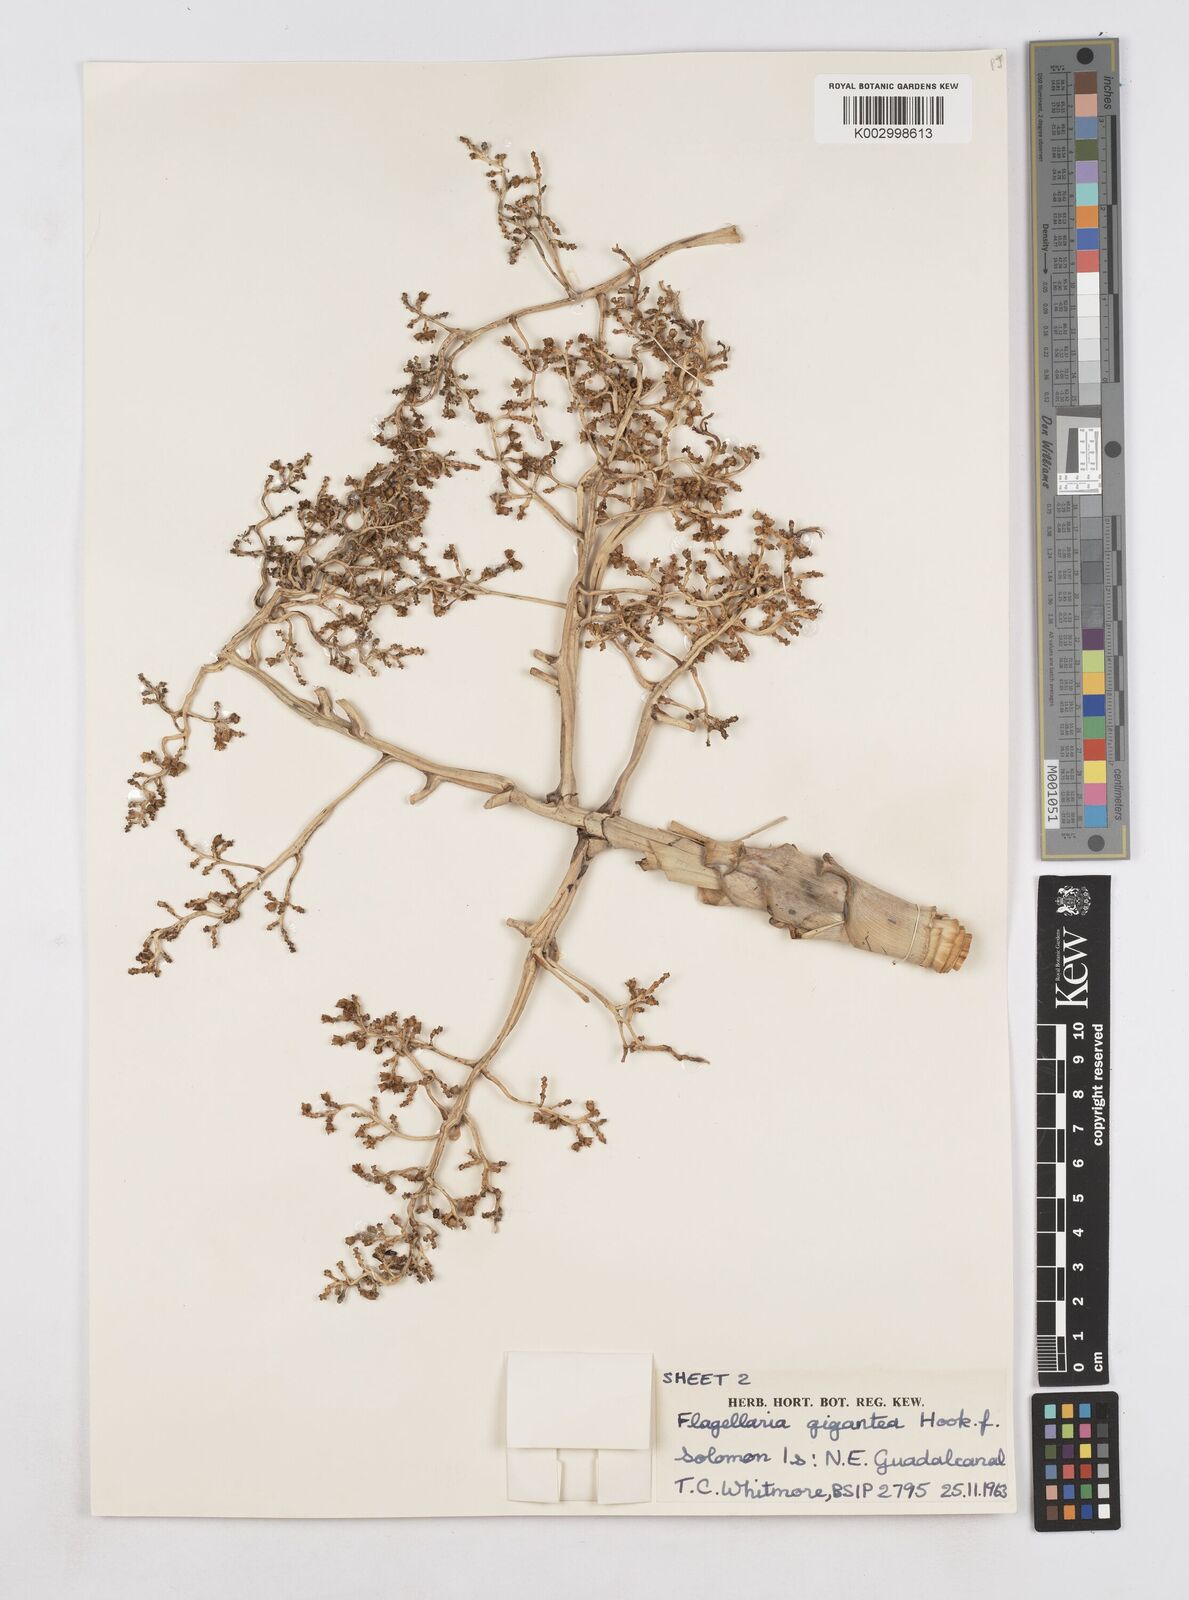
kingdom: Plantae
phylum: Tracheophyta
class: Liliopsida
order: Poales
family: Flagellariaceae
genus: Flagellaria
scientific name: Flagellaria gigantea
